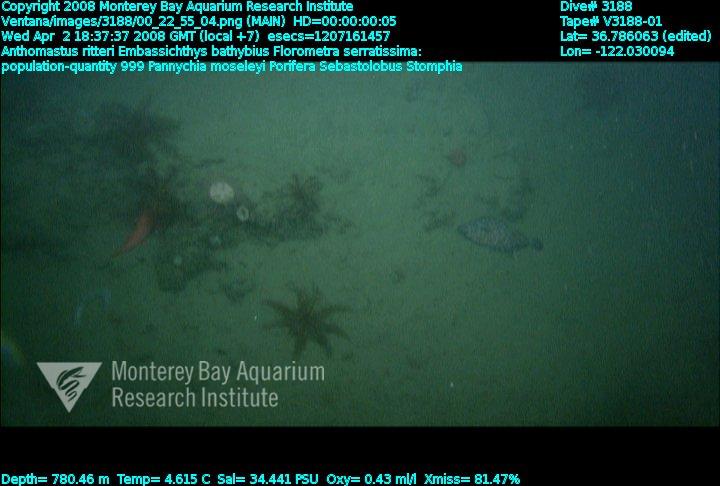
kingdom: Animalia
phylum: Porifera
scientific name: Porifera
